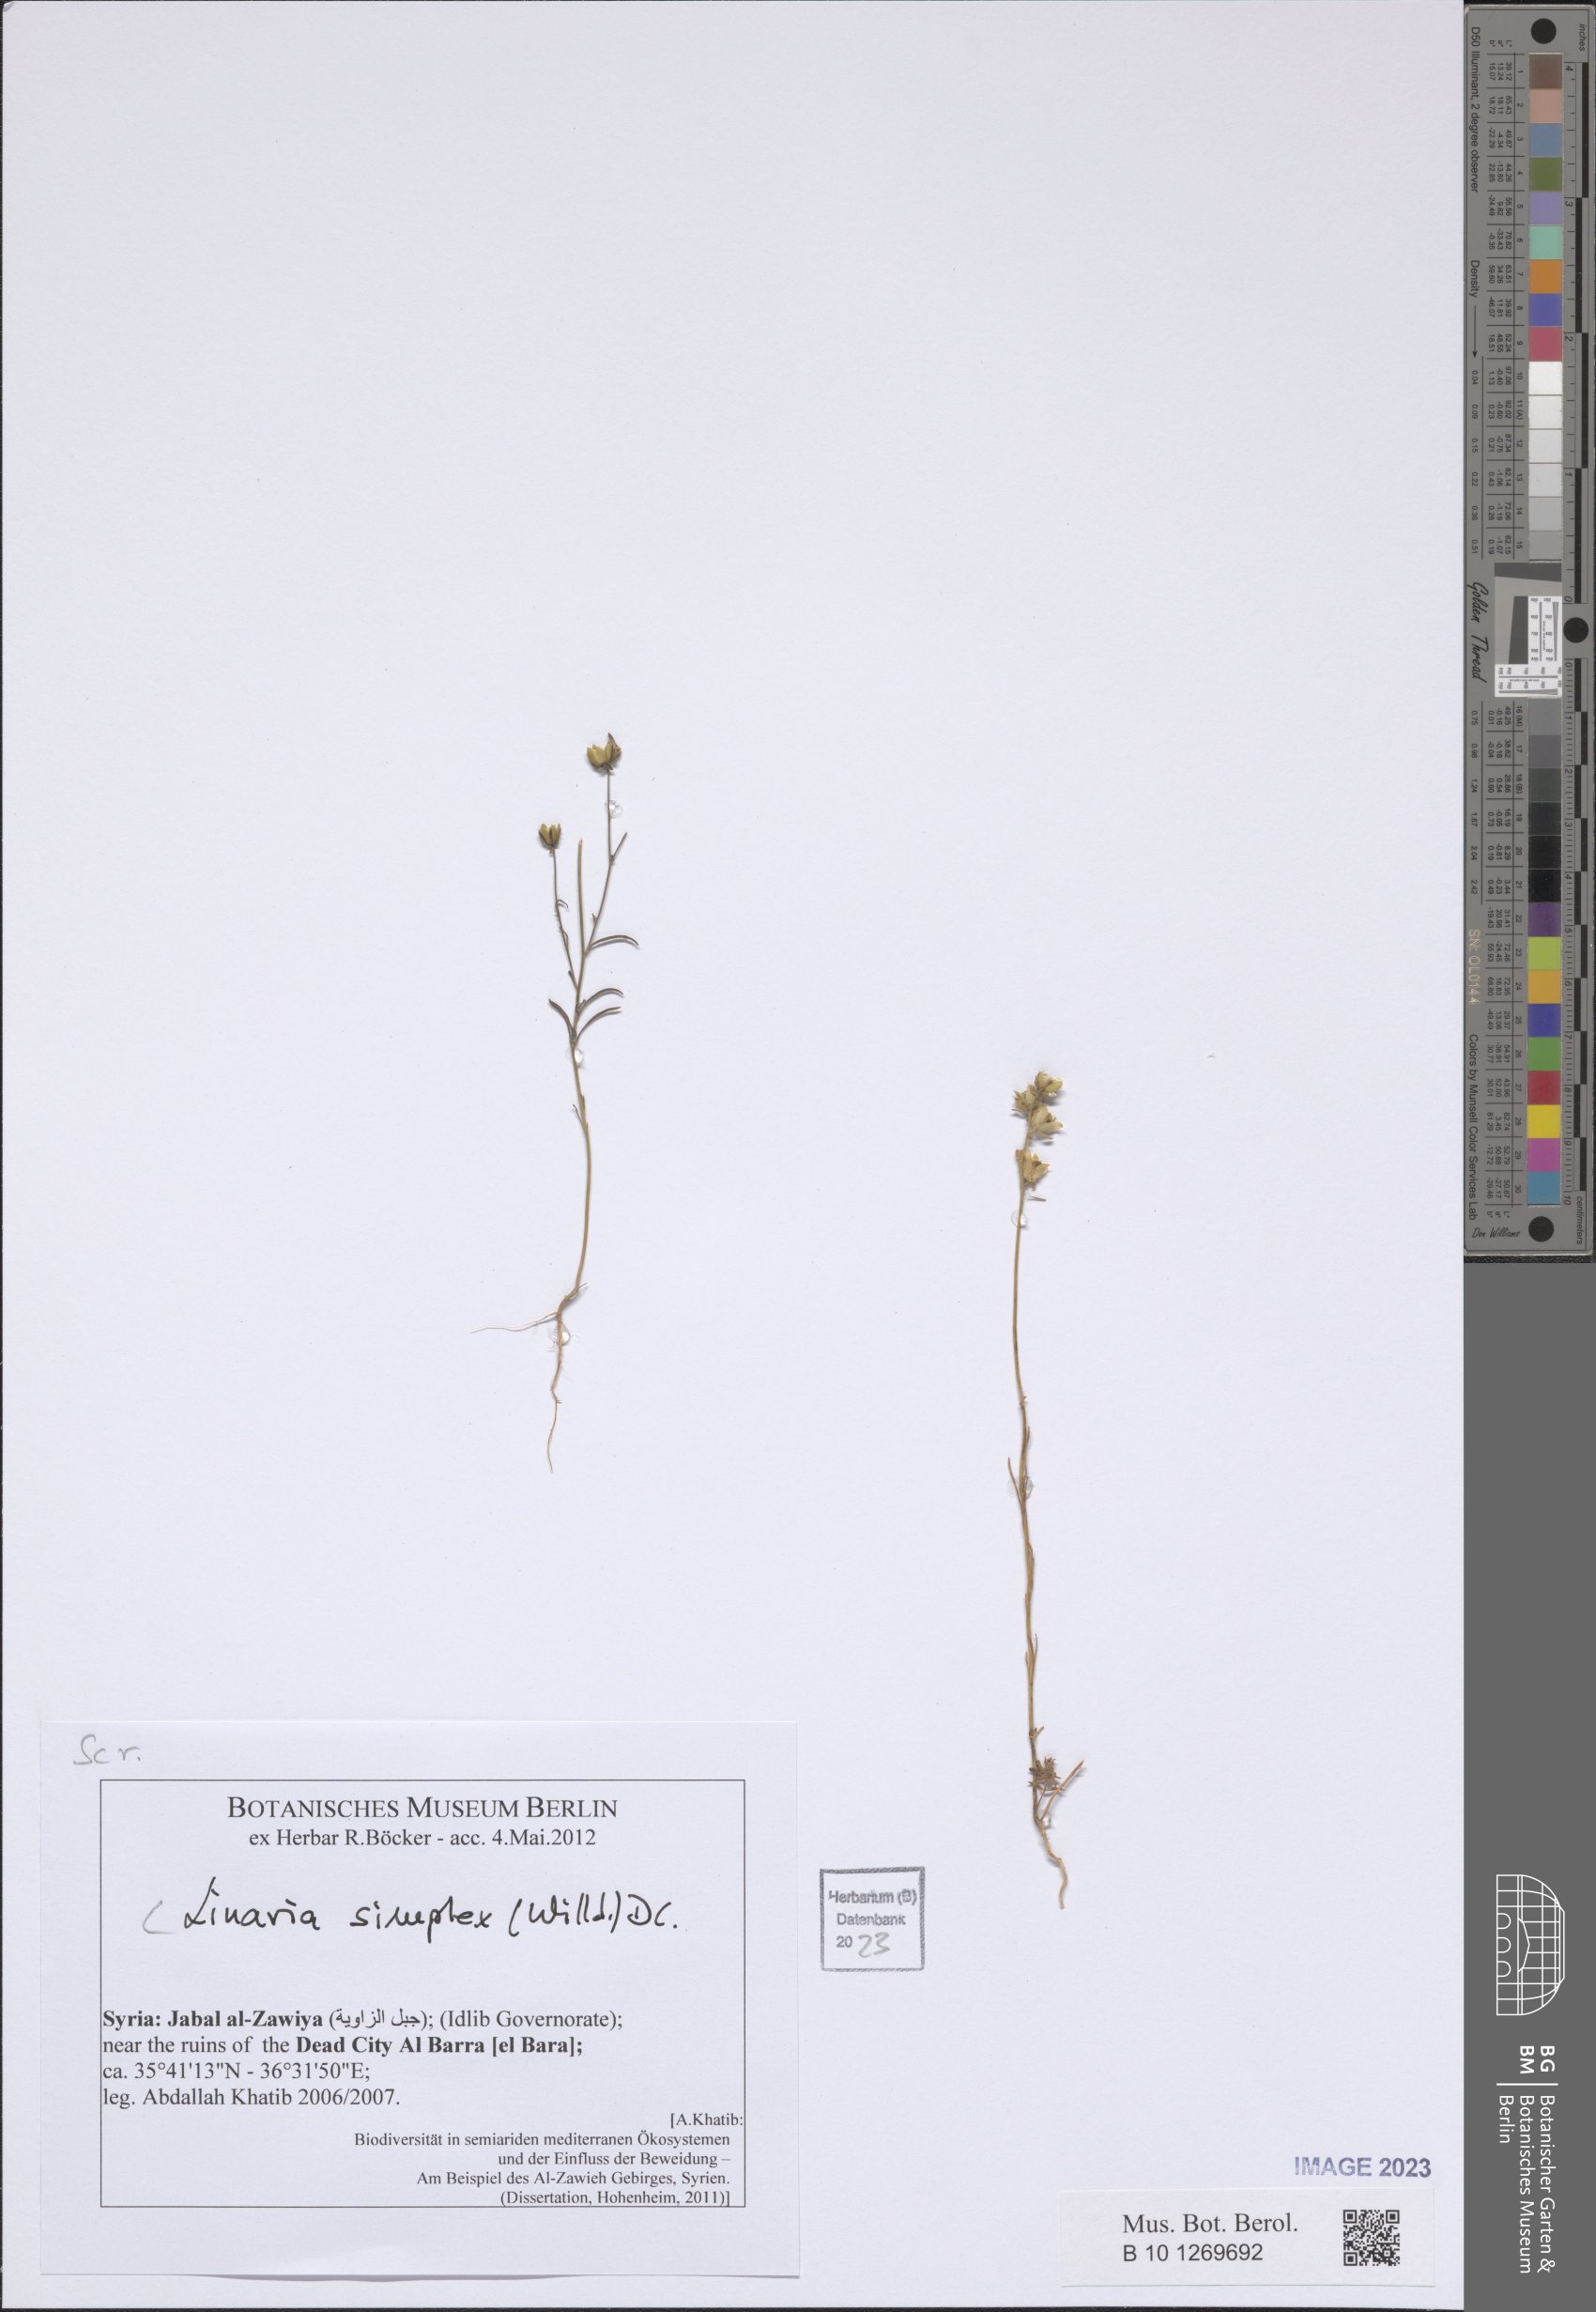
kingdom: Plantae
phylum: Tracheophyta
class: Magnoliopsida
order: Lamiales
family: Plantaginaceae
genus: Linaria
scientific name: Linaria simplex
